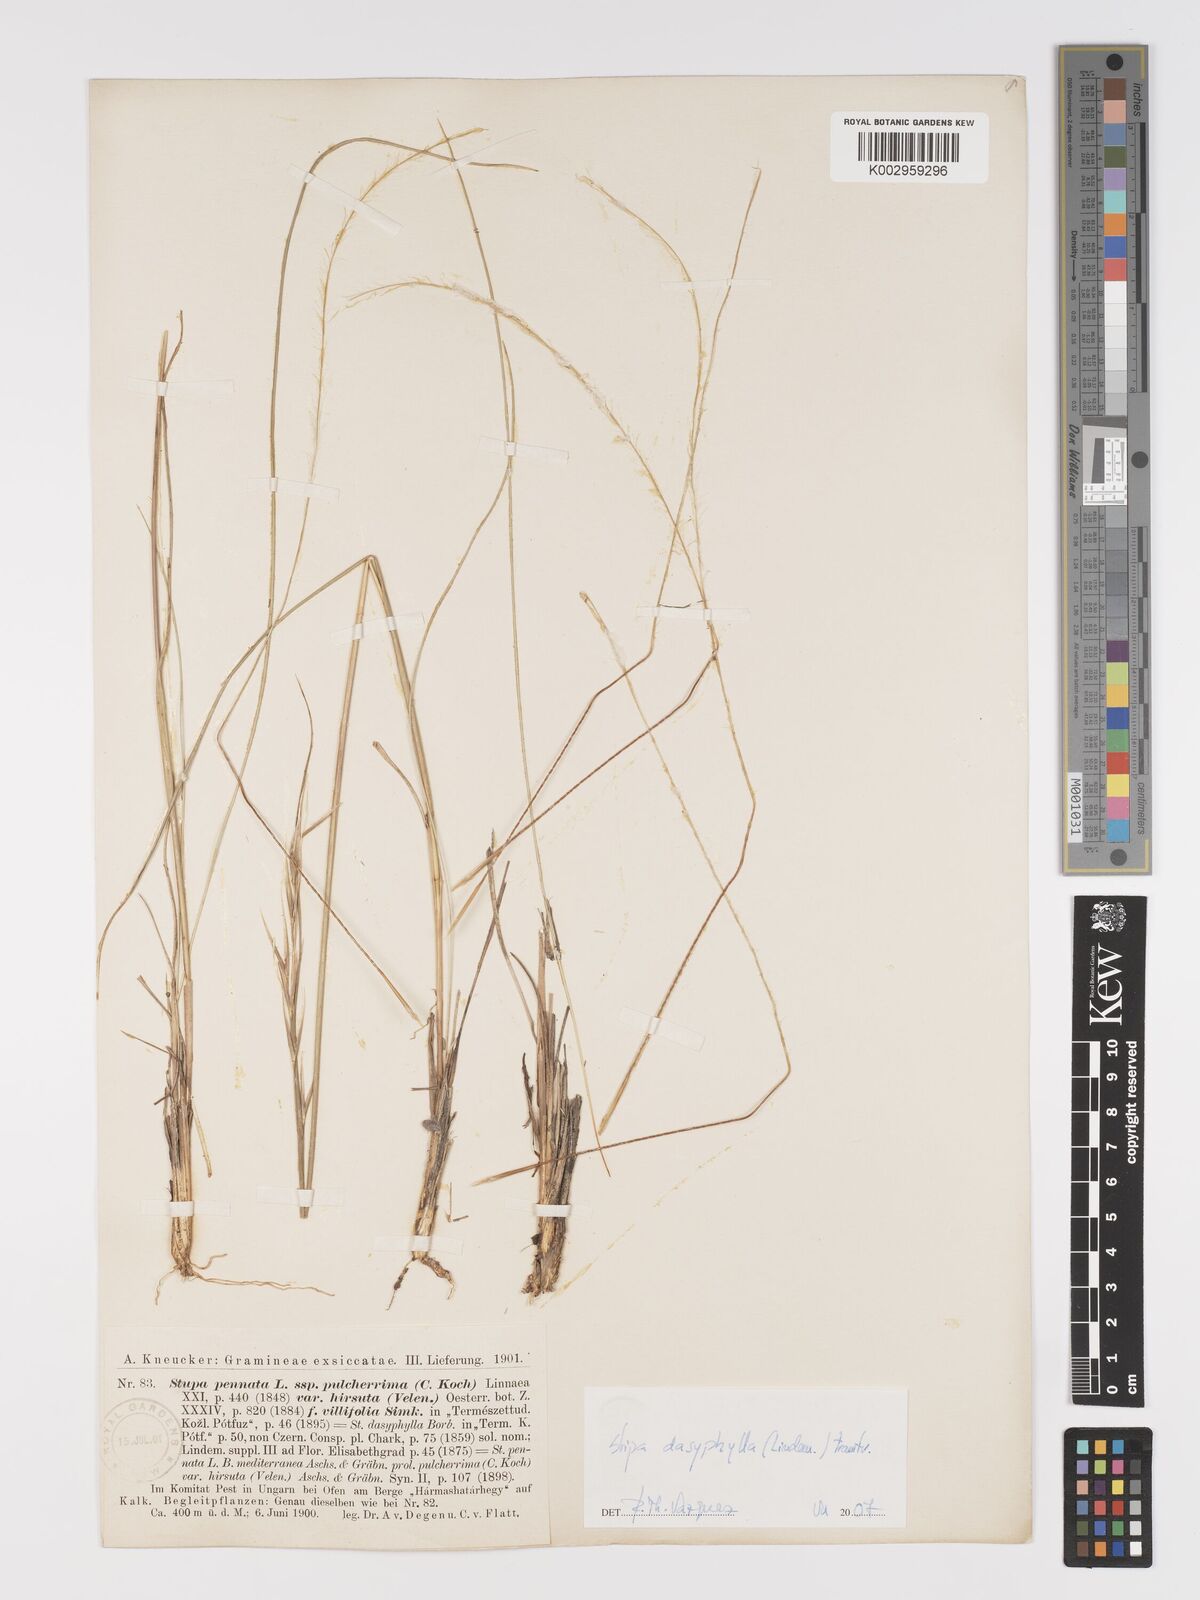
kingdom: Plantae
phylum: Tracheophyta
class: Liliopsida
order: Poales
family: Poaceae
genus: Stipa
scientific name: Stipa dasyphylla
